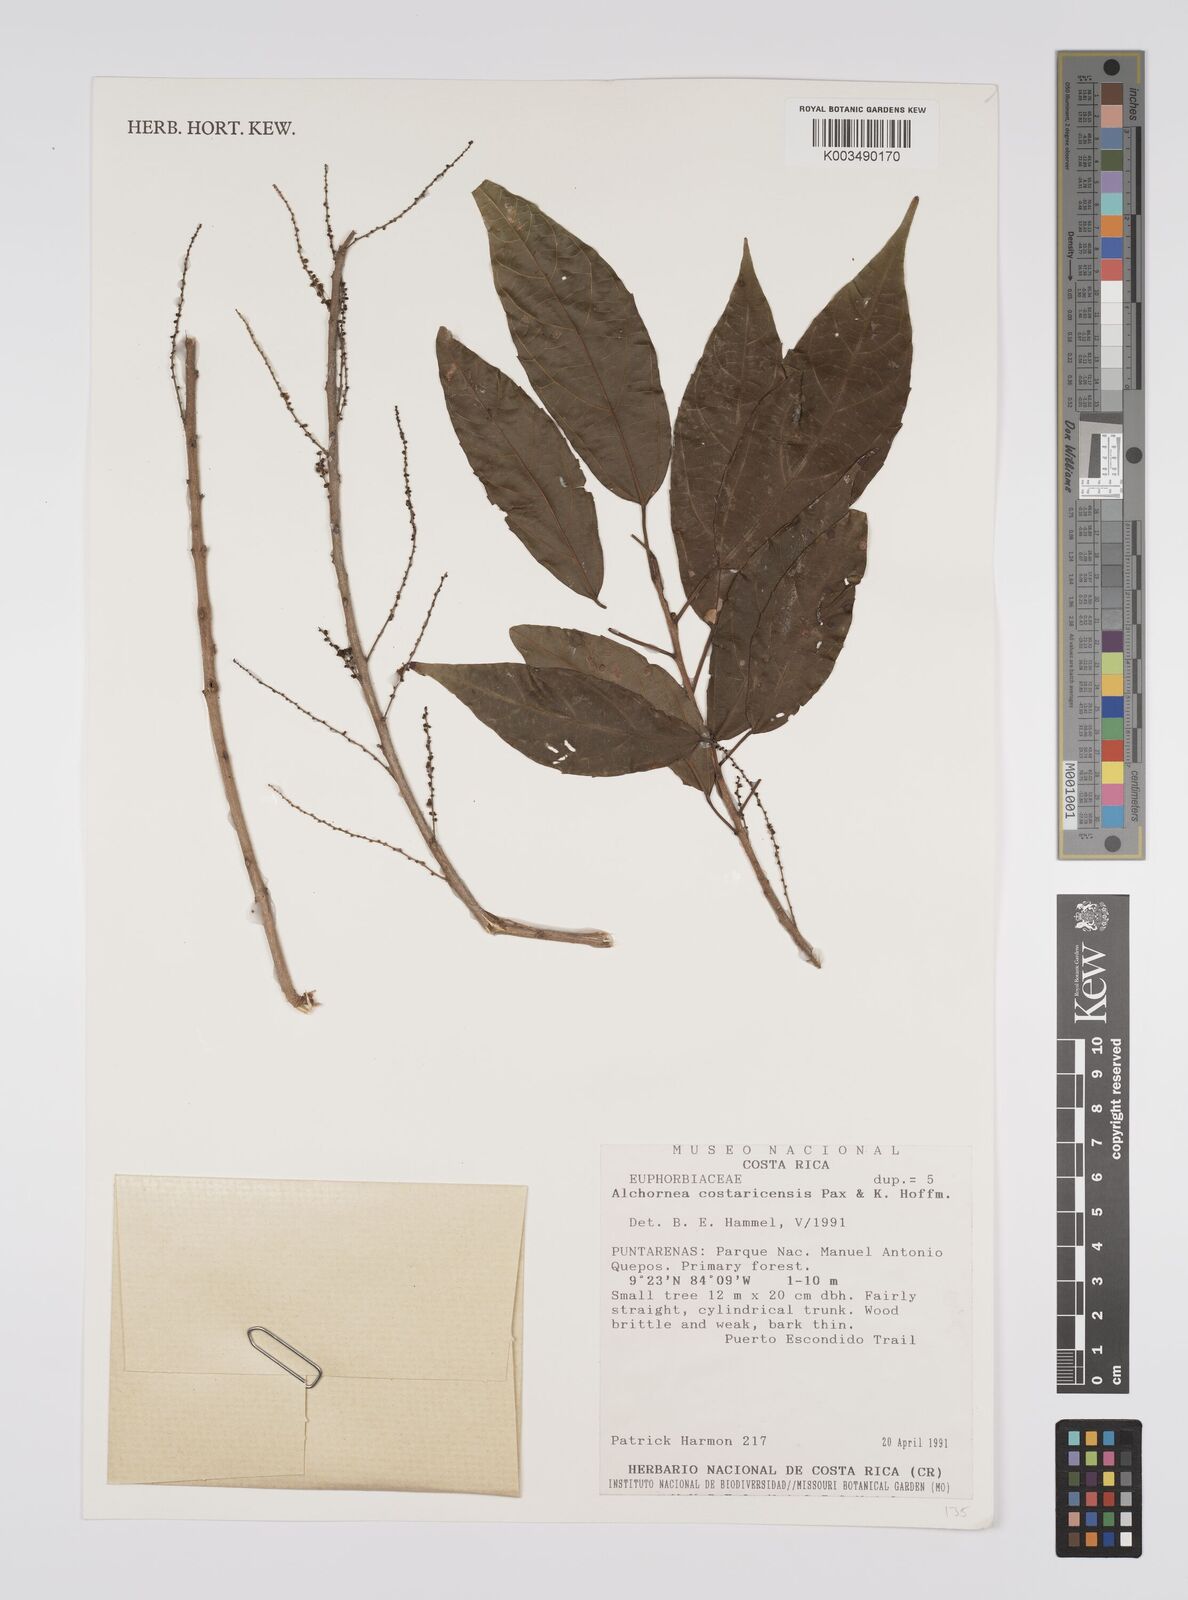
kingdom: Plantae
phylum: Tracheophyta
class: Magnoliopsida
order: Malpighiales
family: Euphorbiaceae
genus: Alchornea
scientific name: Alchornea costaricensis
